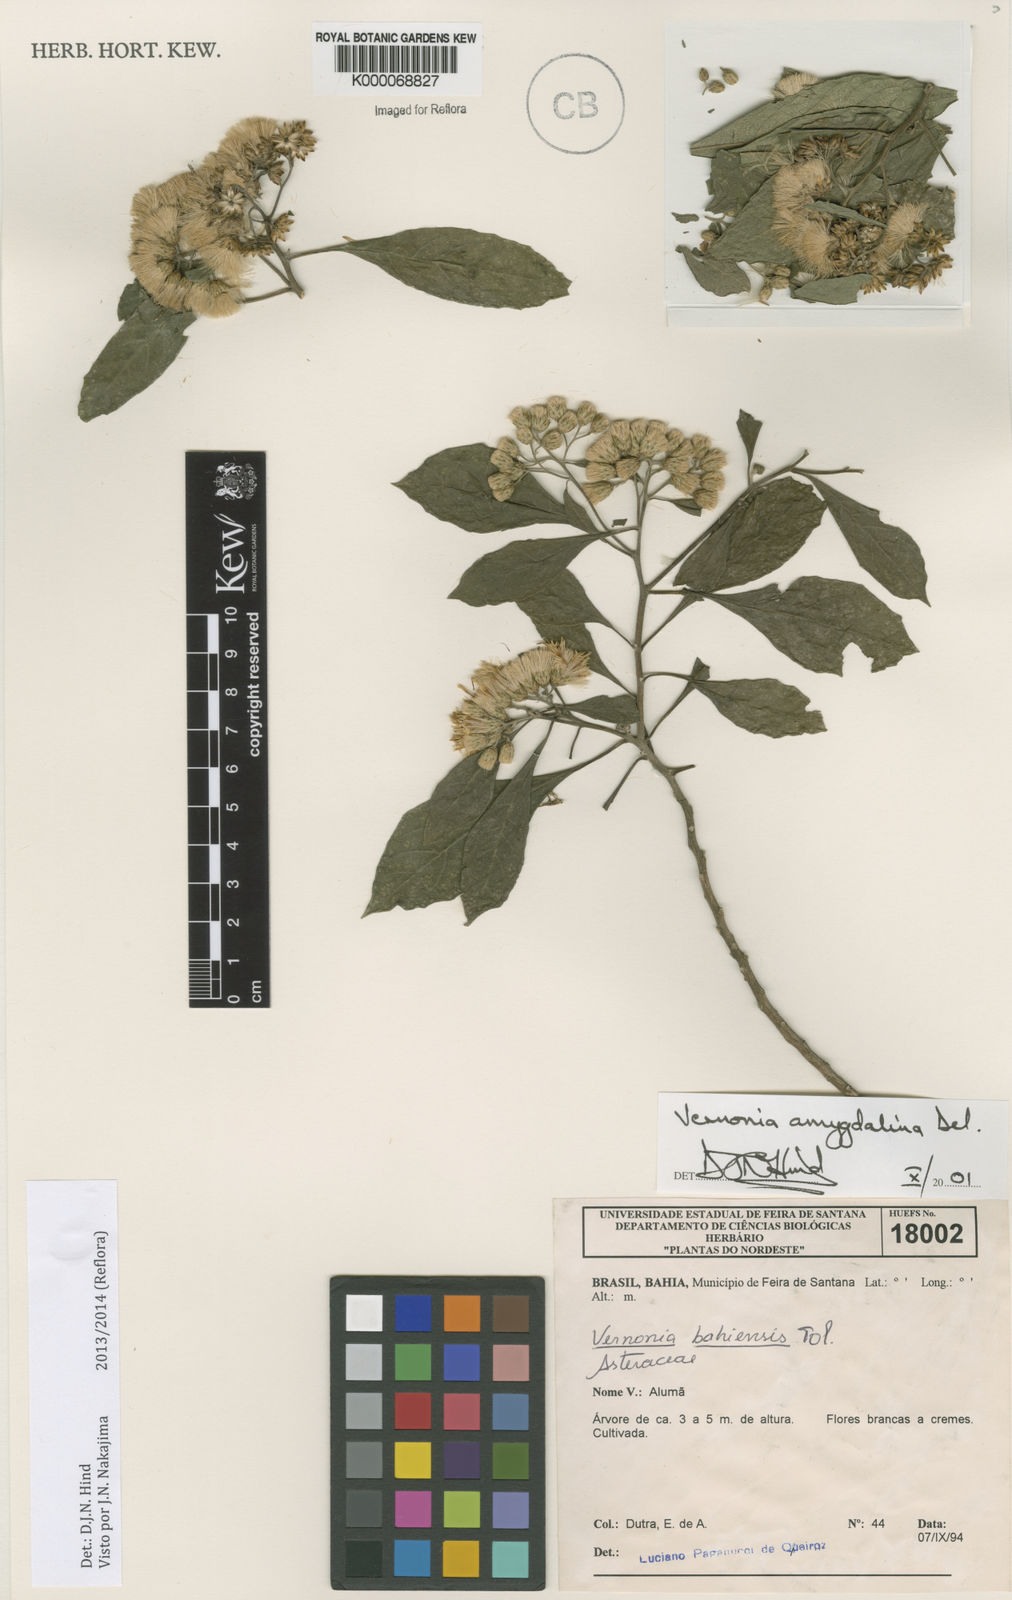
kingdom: Plantae
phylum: Tracheophyta
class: Magnoliopsida
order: Asterales
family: Asteraceae
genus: Gymnanthemum
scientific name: Gymnanthemum amygdalinum
